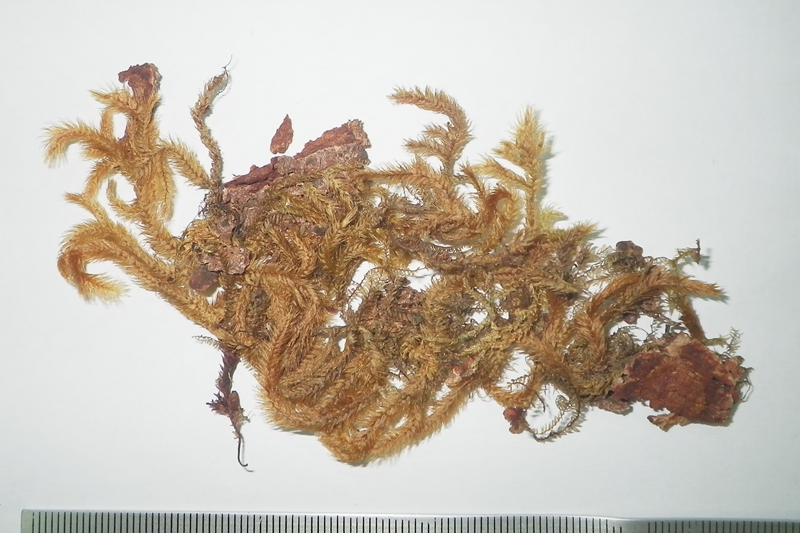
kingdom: Plantae
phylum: Bryophyta
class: Bryopsida
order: Hypnales
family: Meteoriaceae
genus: Trachypodopsis
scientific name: Trachypodopsis serrulata
